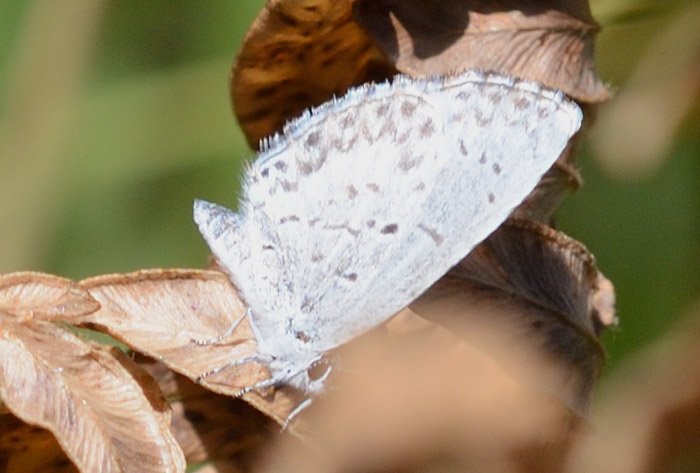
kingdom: Animalia
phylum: Arthropoda
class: Insecta
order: Lepidoptera
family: Lycaenidae
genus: Celastrina
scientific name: Celastrina
